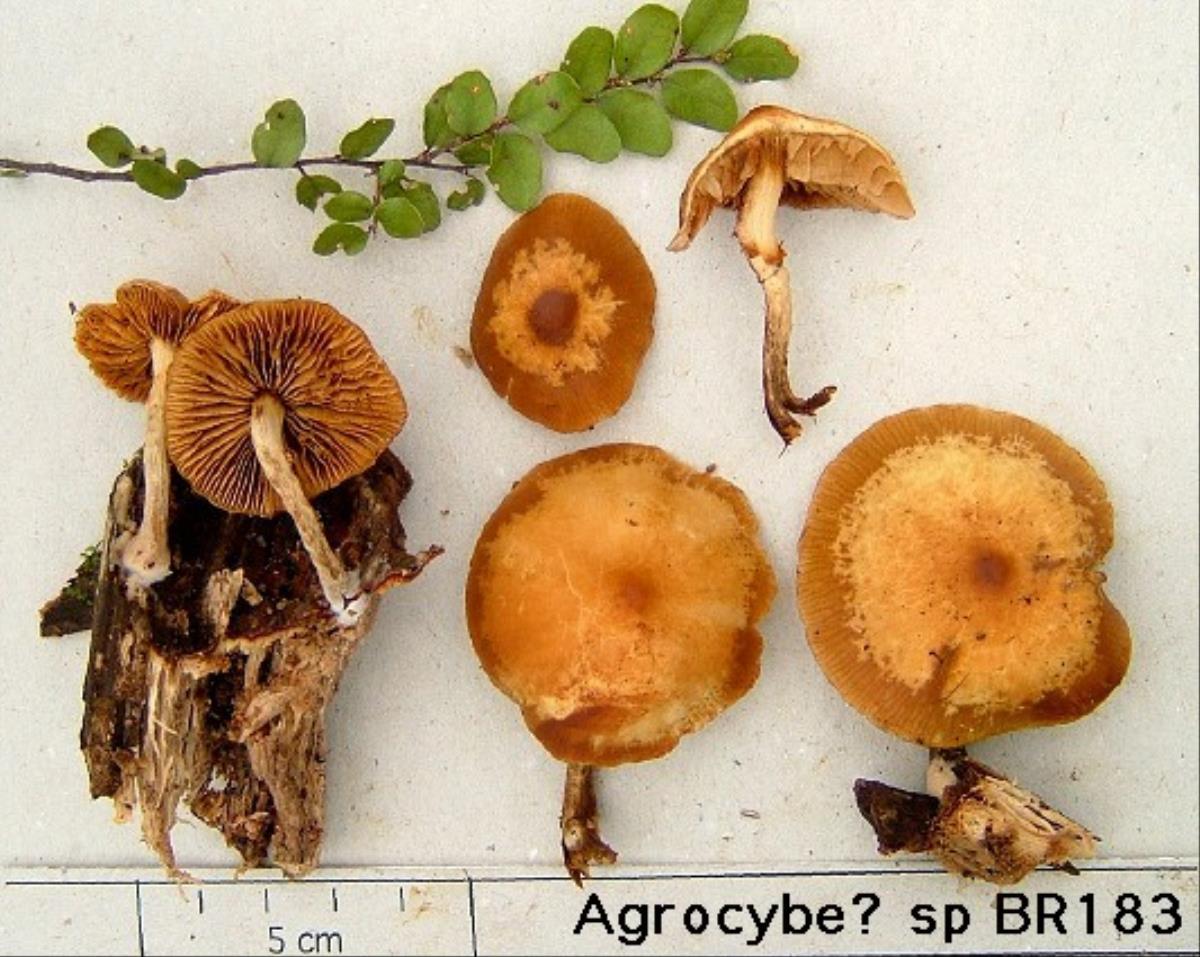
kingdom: Fungi
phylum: Basidiomycota
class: Agaricomycetes
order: Agaricales
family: Hymenogastraceae
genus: Galerina
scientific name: Galerina patagonica
